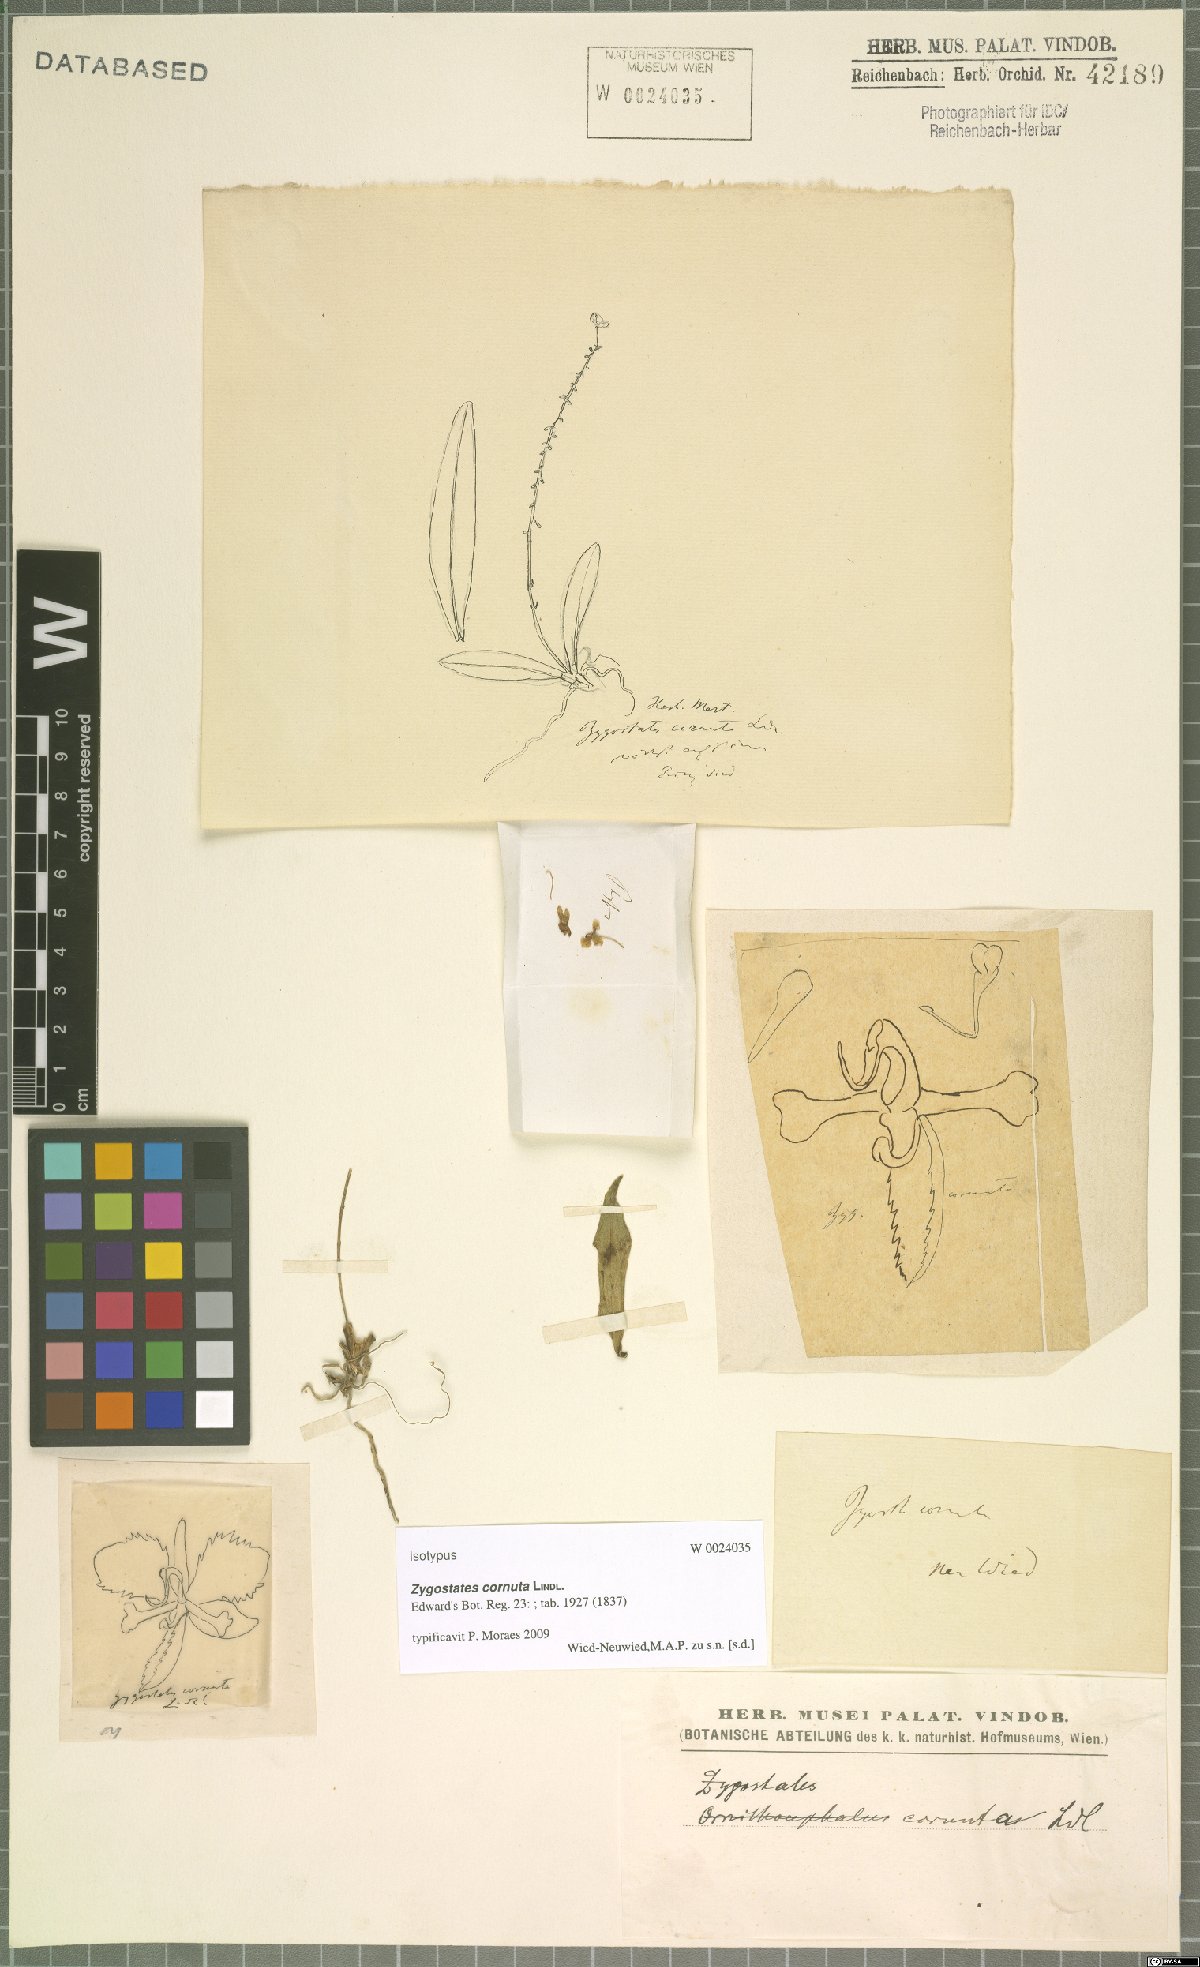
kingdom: Plantae
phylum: Tracheophyta
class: Liliopsida
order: Asparagales
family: Orchidaceae
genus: Zygostates
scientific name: Zygostates cornuta
